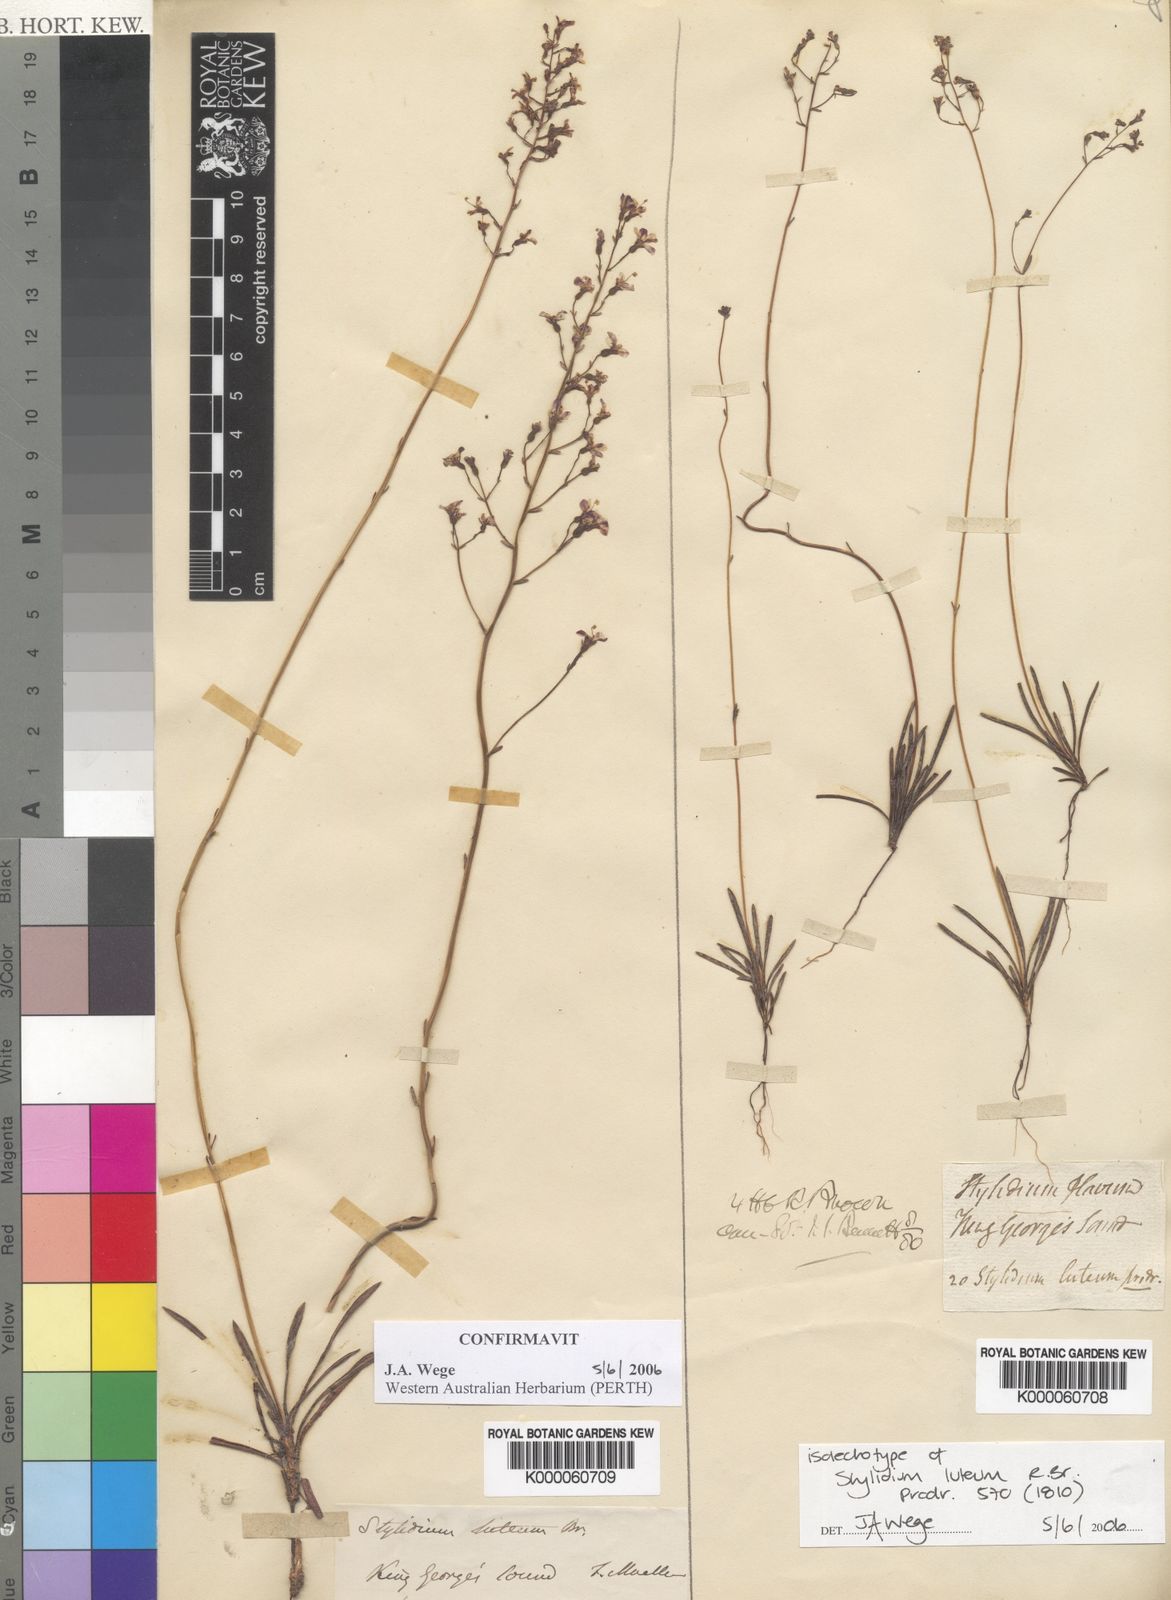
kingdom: Plantae
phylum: Tracheophyta
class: Magnoliopsida
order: Asterales
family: Stylidiaceae
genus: Stylidium
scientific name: Stylidium luteum
